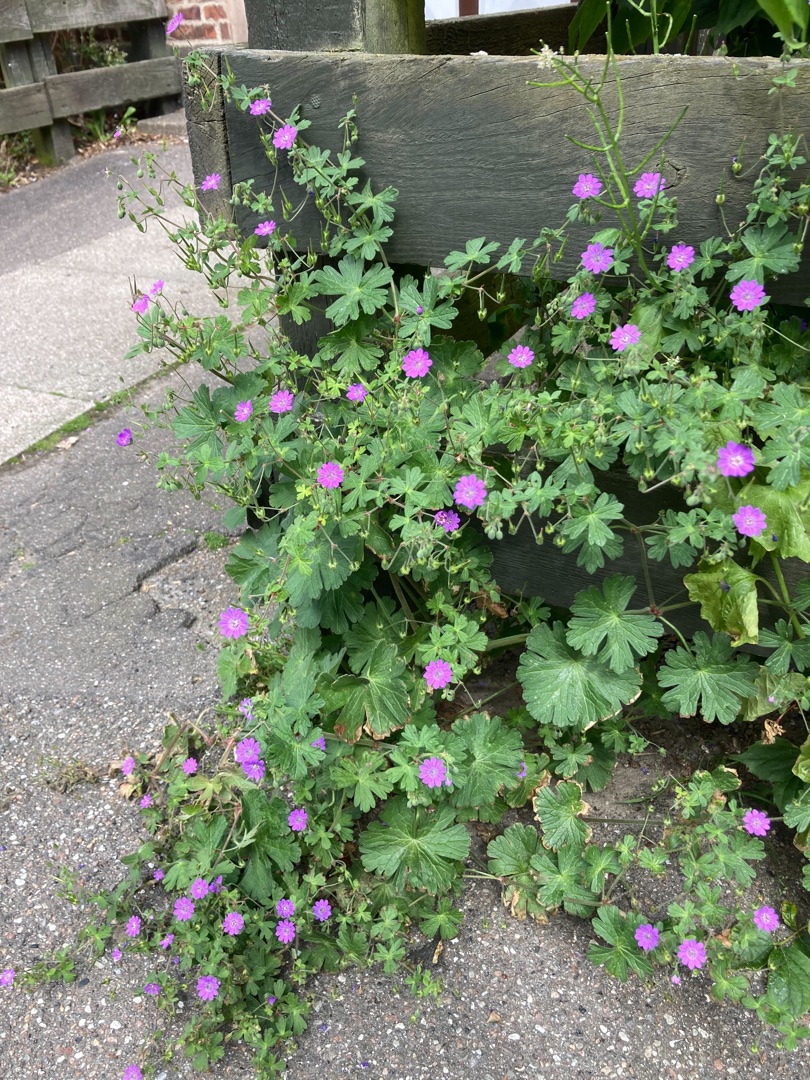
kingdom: Plantae
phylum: Tracheophyta
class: Magnoliopsida
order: Geraniales
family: Geraniaceae
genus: Geranium
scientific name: Geranium pyrenaicum
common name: Pyrenæisk storkenæb
